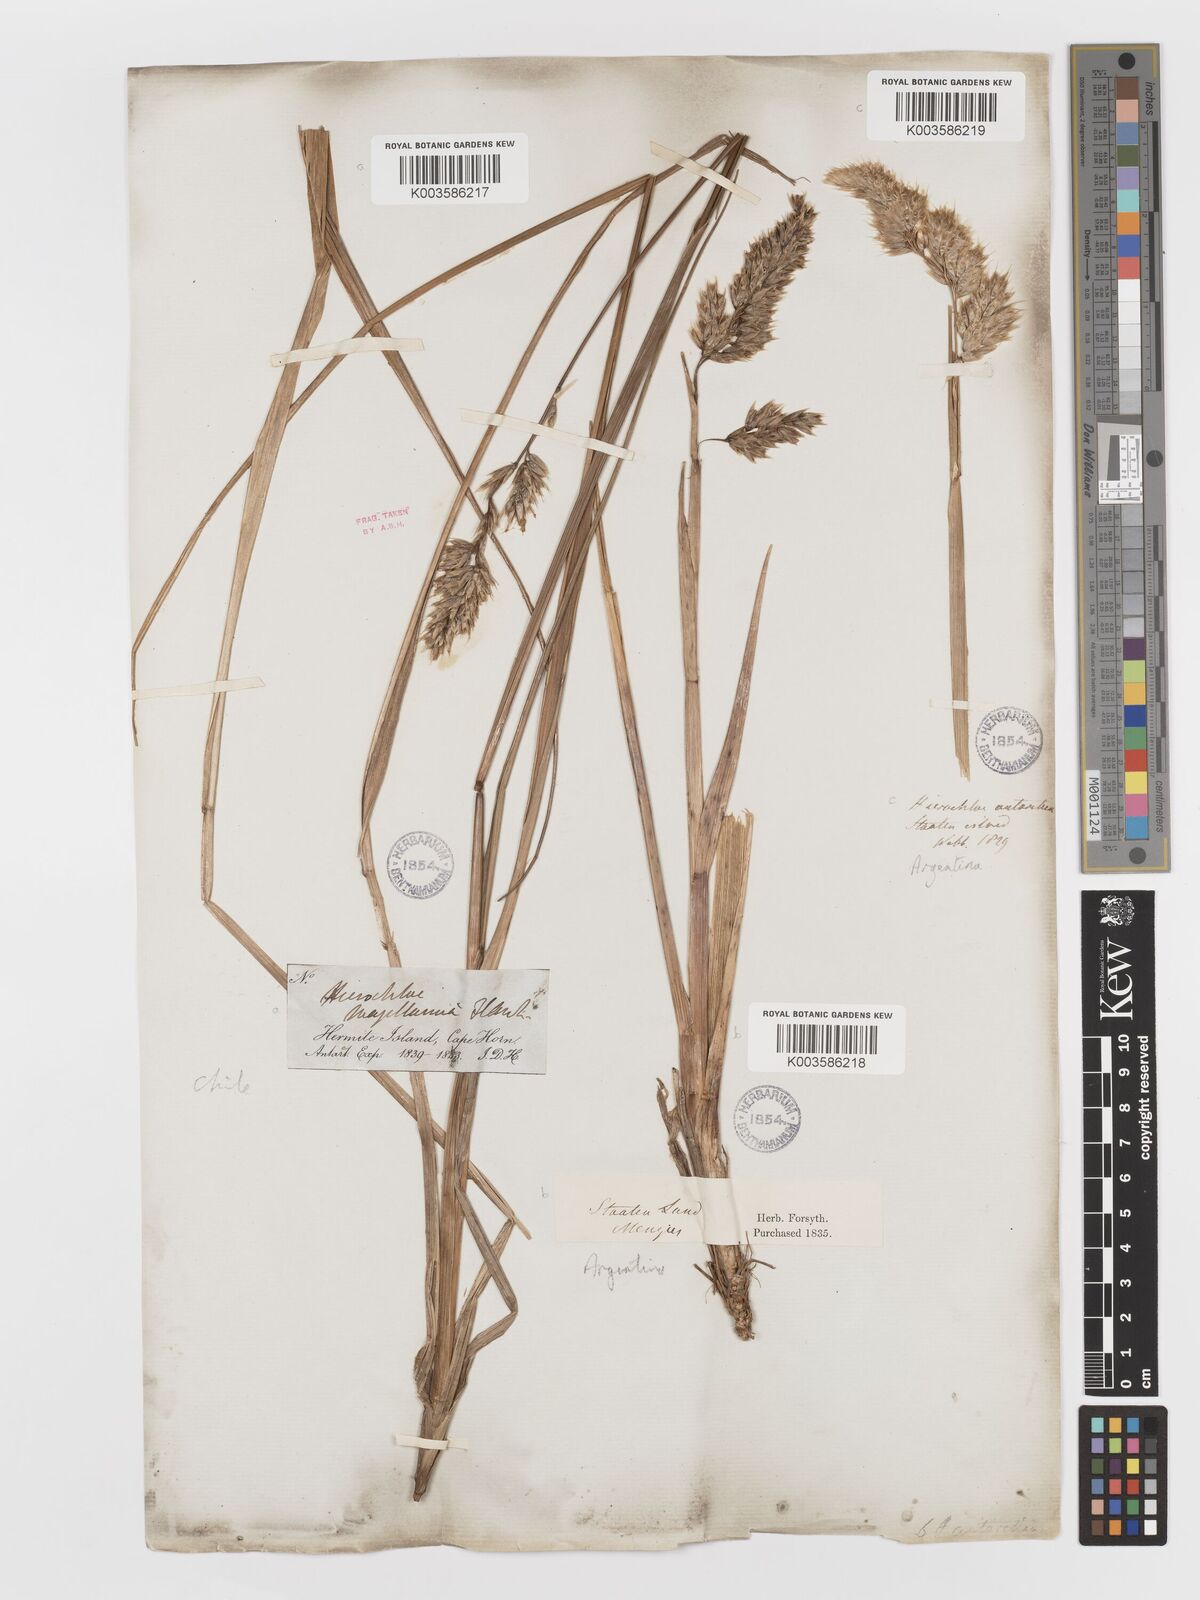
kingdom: Plantae
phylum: Tracheophyta
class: Liliopsida
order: Poales
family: Poaceae
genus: Anthoxanthum
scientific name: Anthoxanthum redolens
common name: Sweet holy grass
